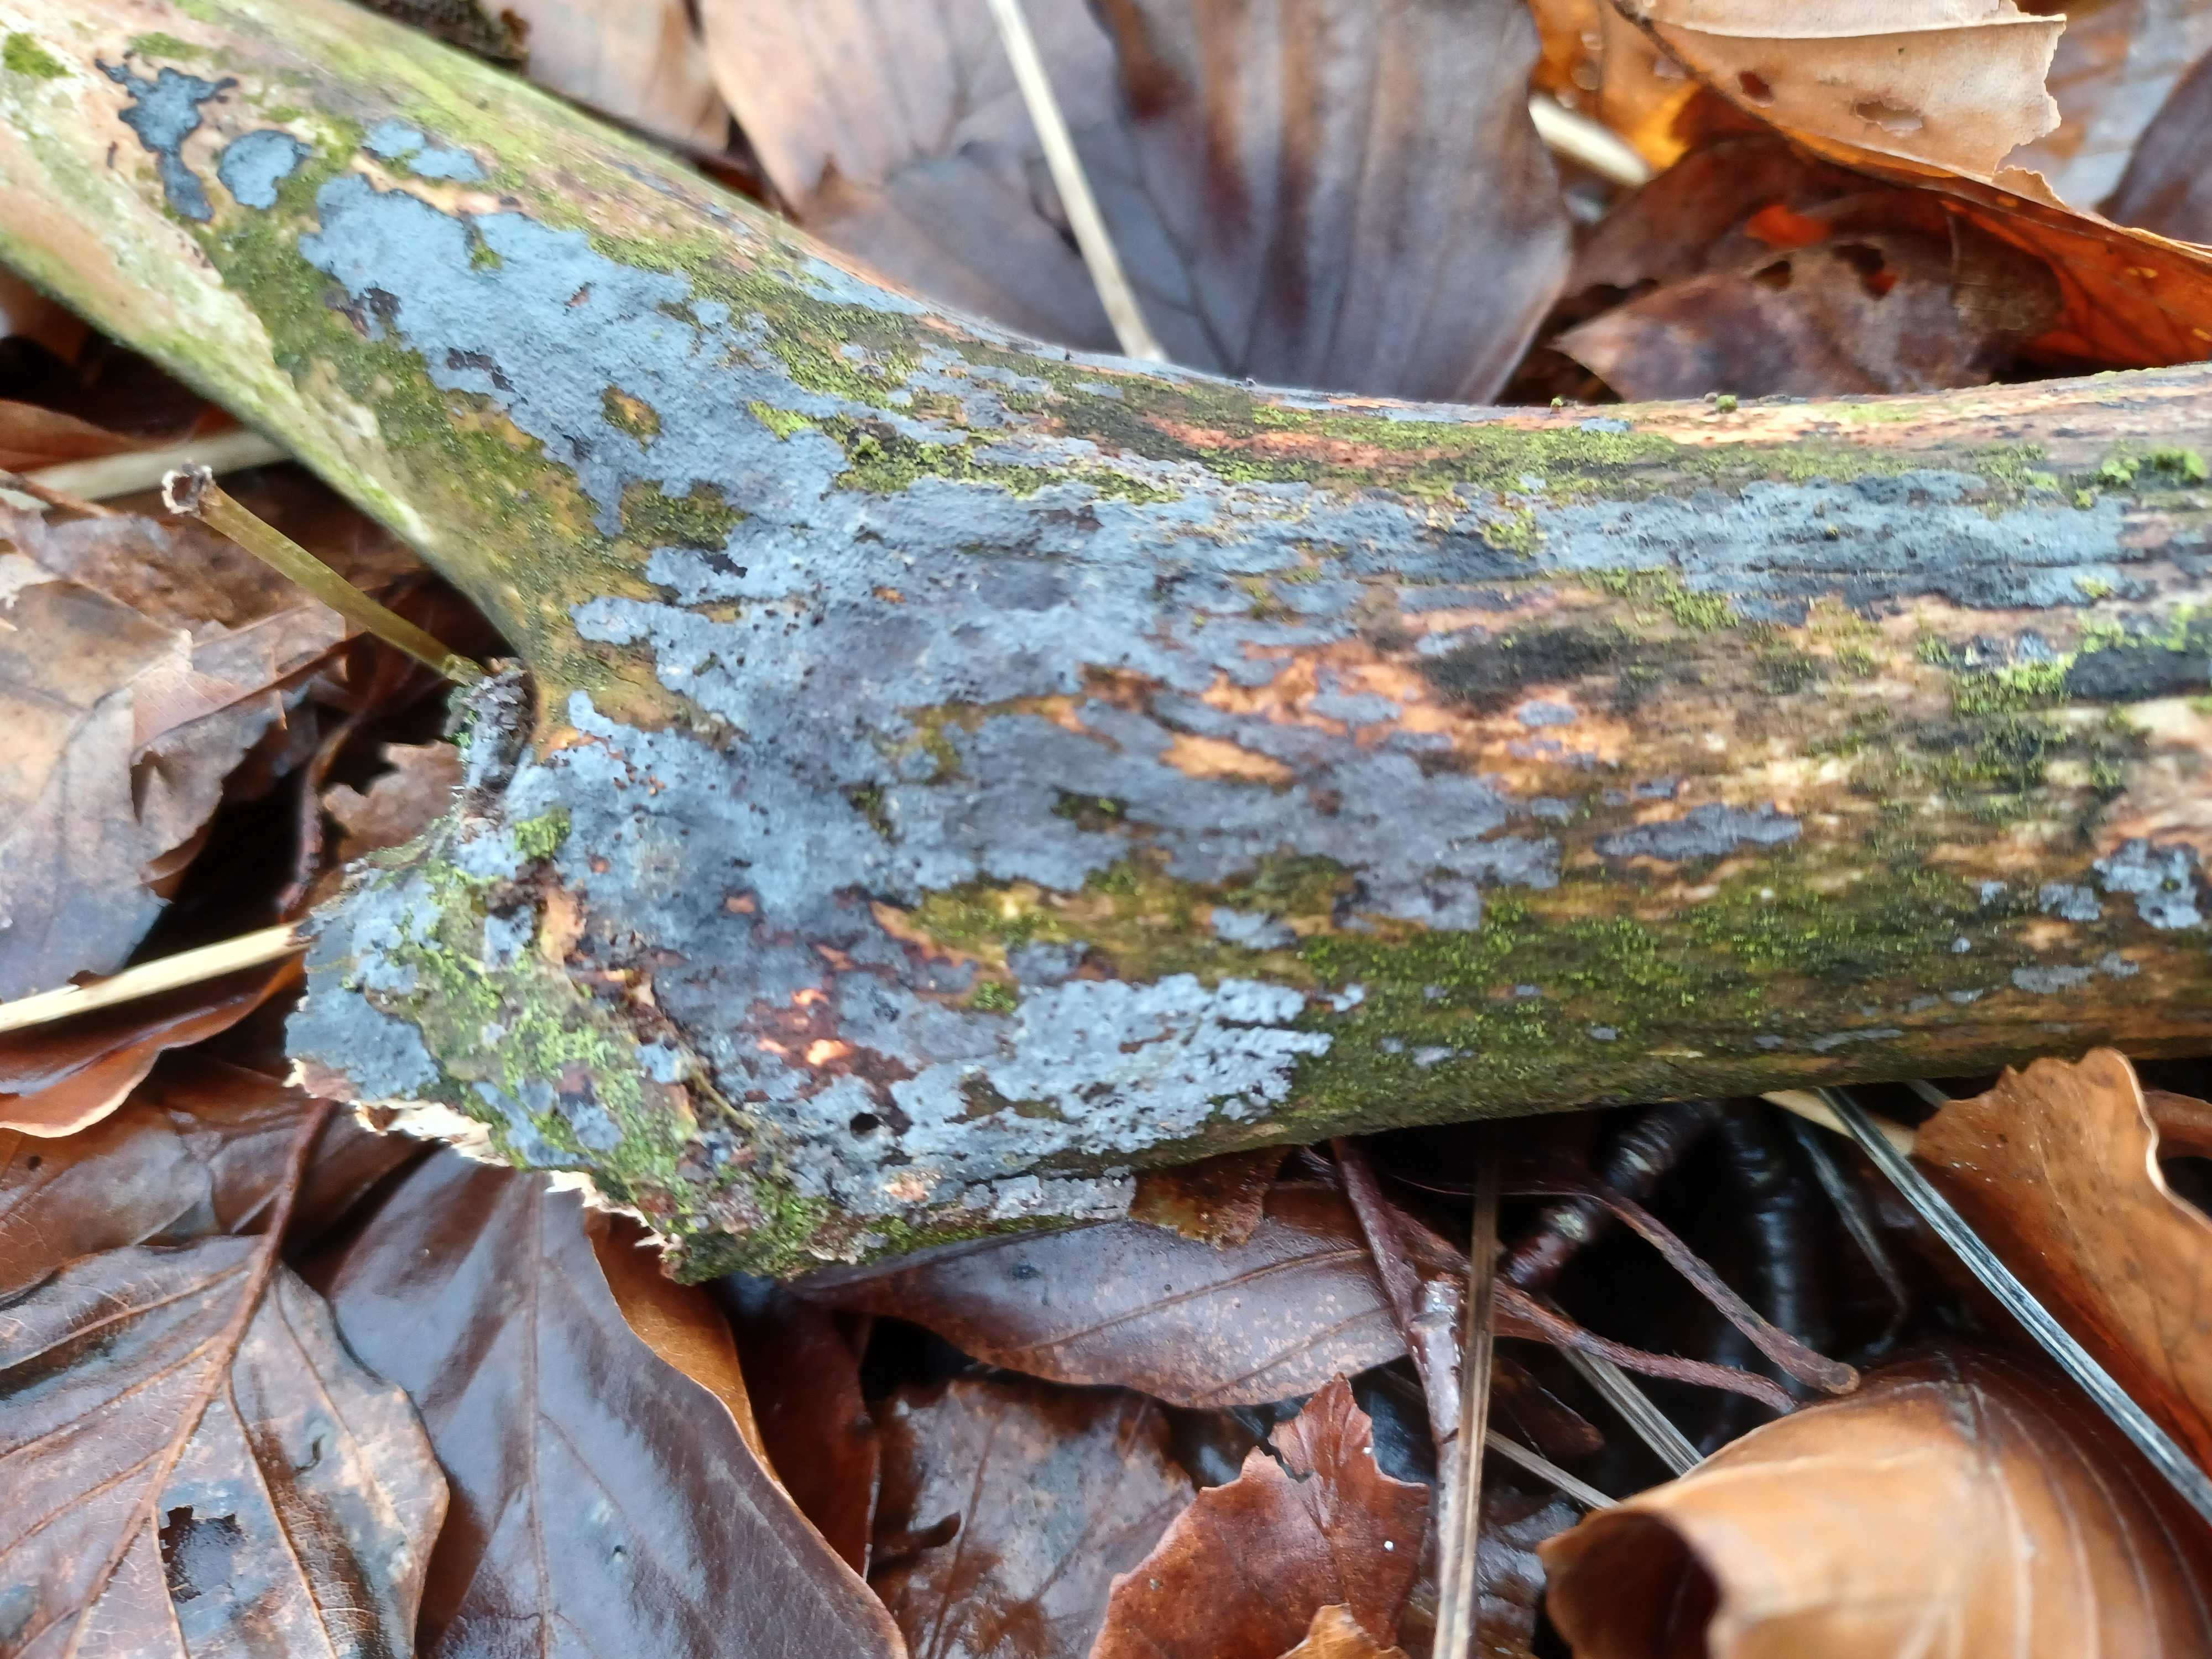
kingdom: Fungi
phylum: Basidiomycota
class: Agaricomycetes
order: Russulales
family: Peniophoraceae
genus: Peniophora
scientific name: Peniophora
